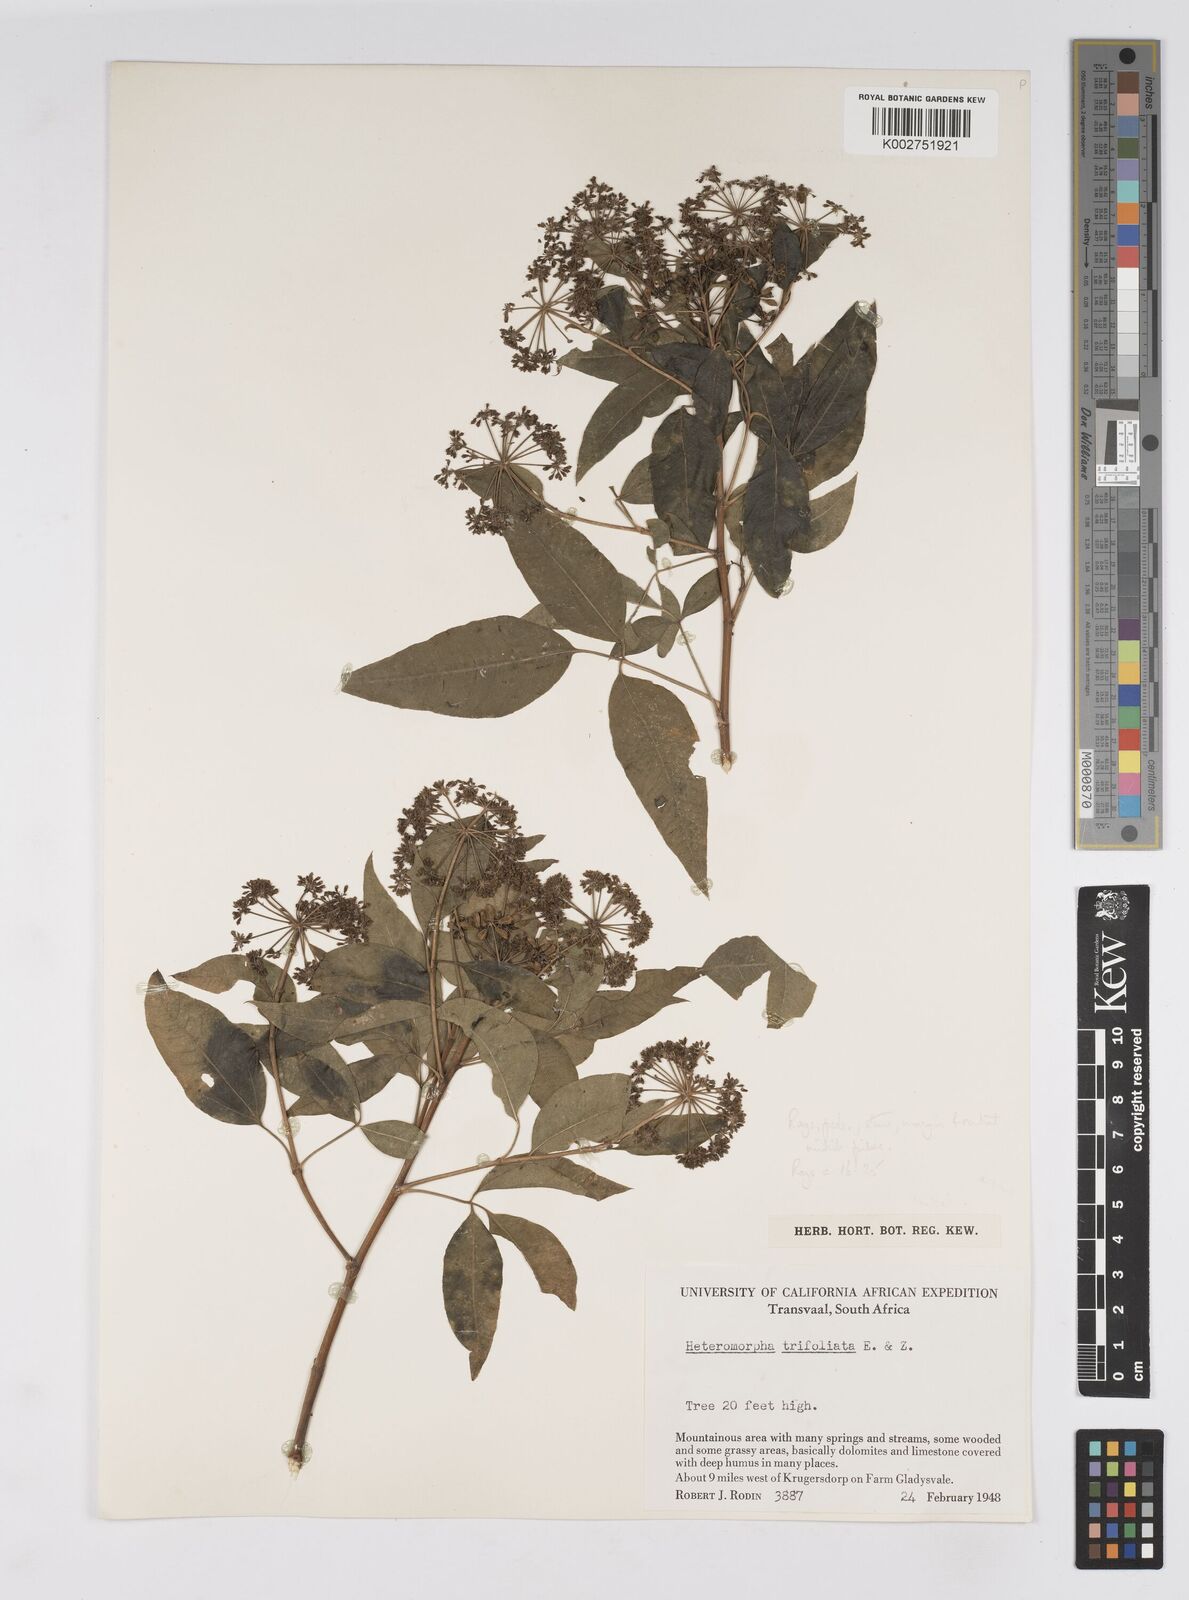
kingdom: Plantae
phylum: Tracheophyta
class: Magnoliopsida
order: Apiales
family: Apiaceae
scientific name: Apiaceae
